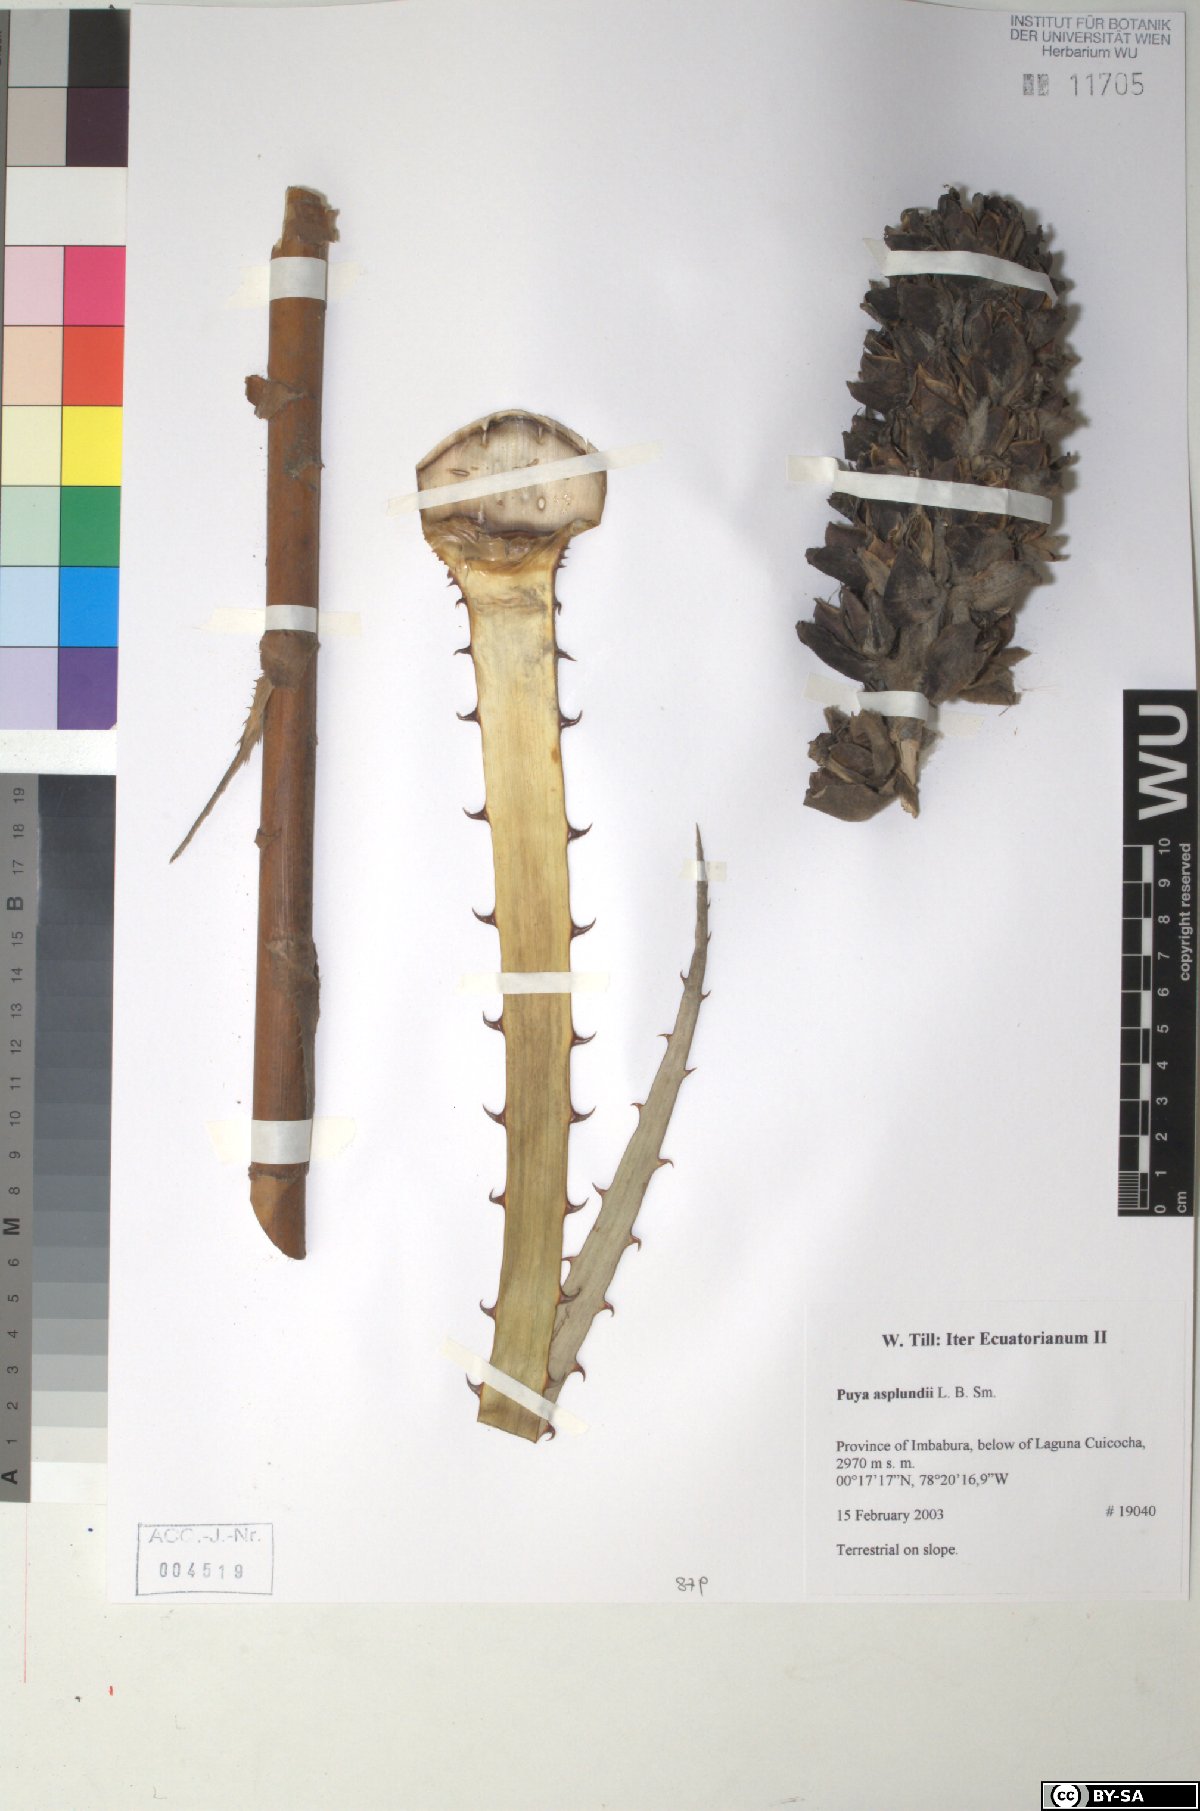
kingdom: Plantae
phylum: Tracheophyta
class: Liliopsida
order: Poales
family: Bromeliaceae
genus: Puya
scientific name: Puya glomerifera
